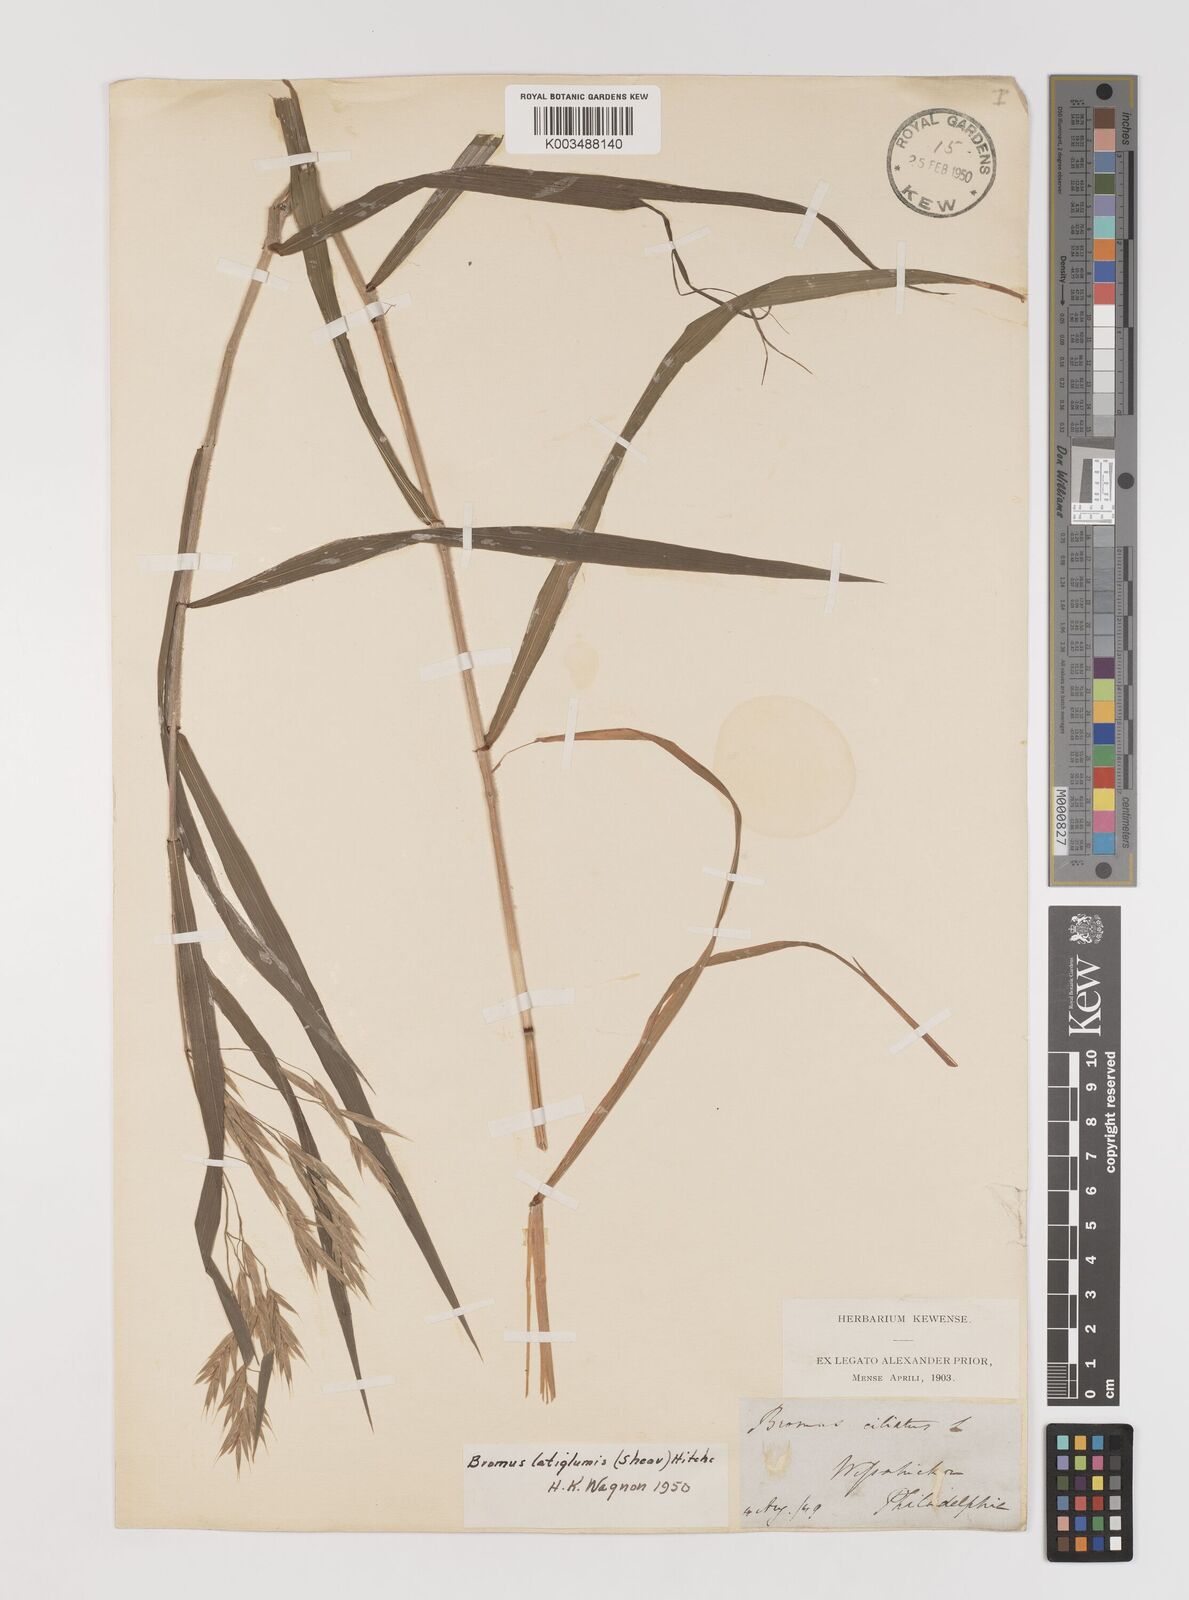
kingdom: Plantae
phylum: Tracheophyta
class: Liliopsida
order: Poales
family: Poaceae
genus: Bromus
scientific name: Bromus latiglumis
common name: Broad-glumed brome
